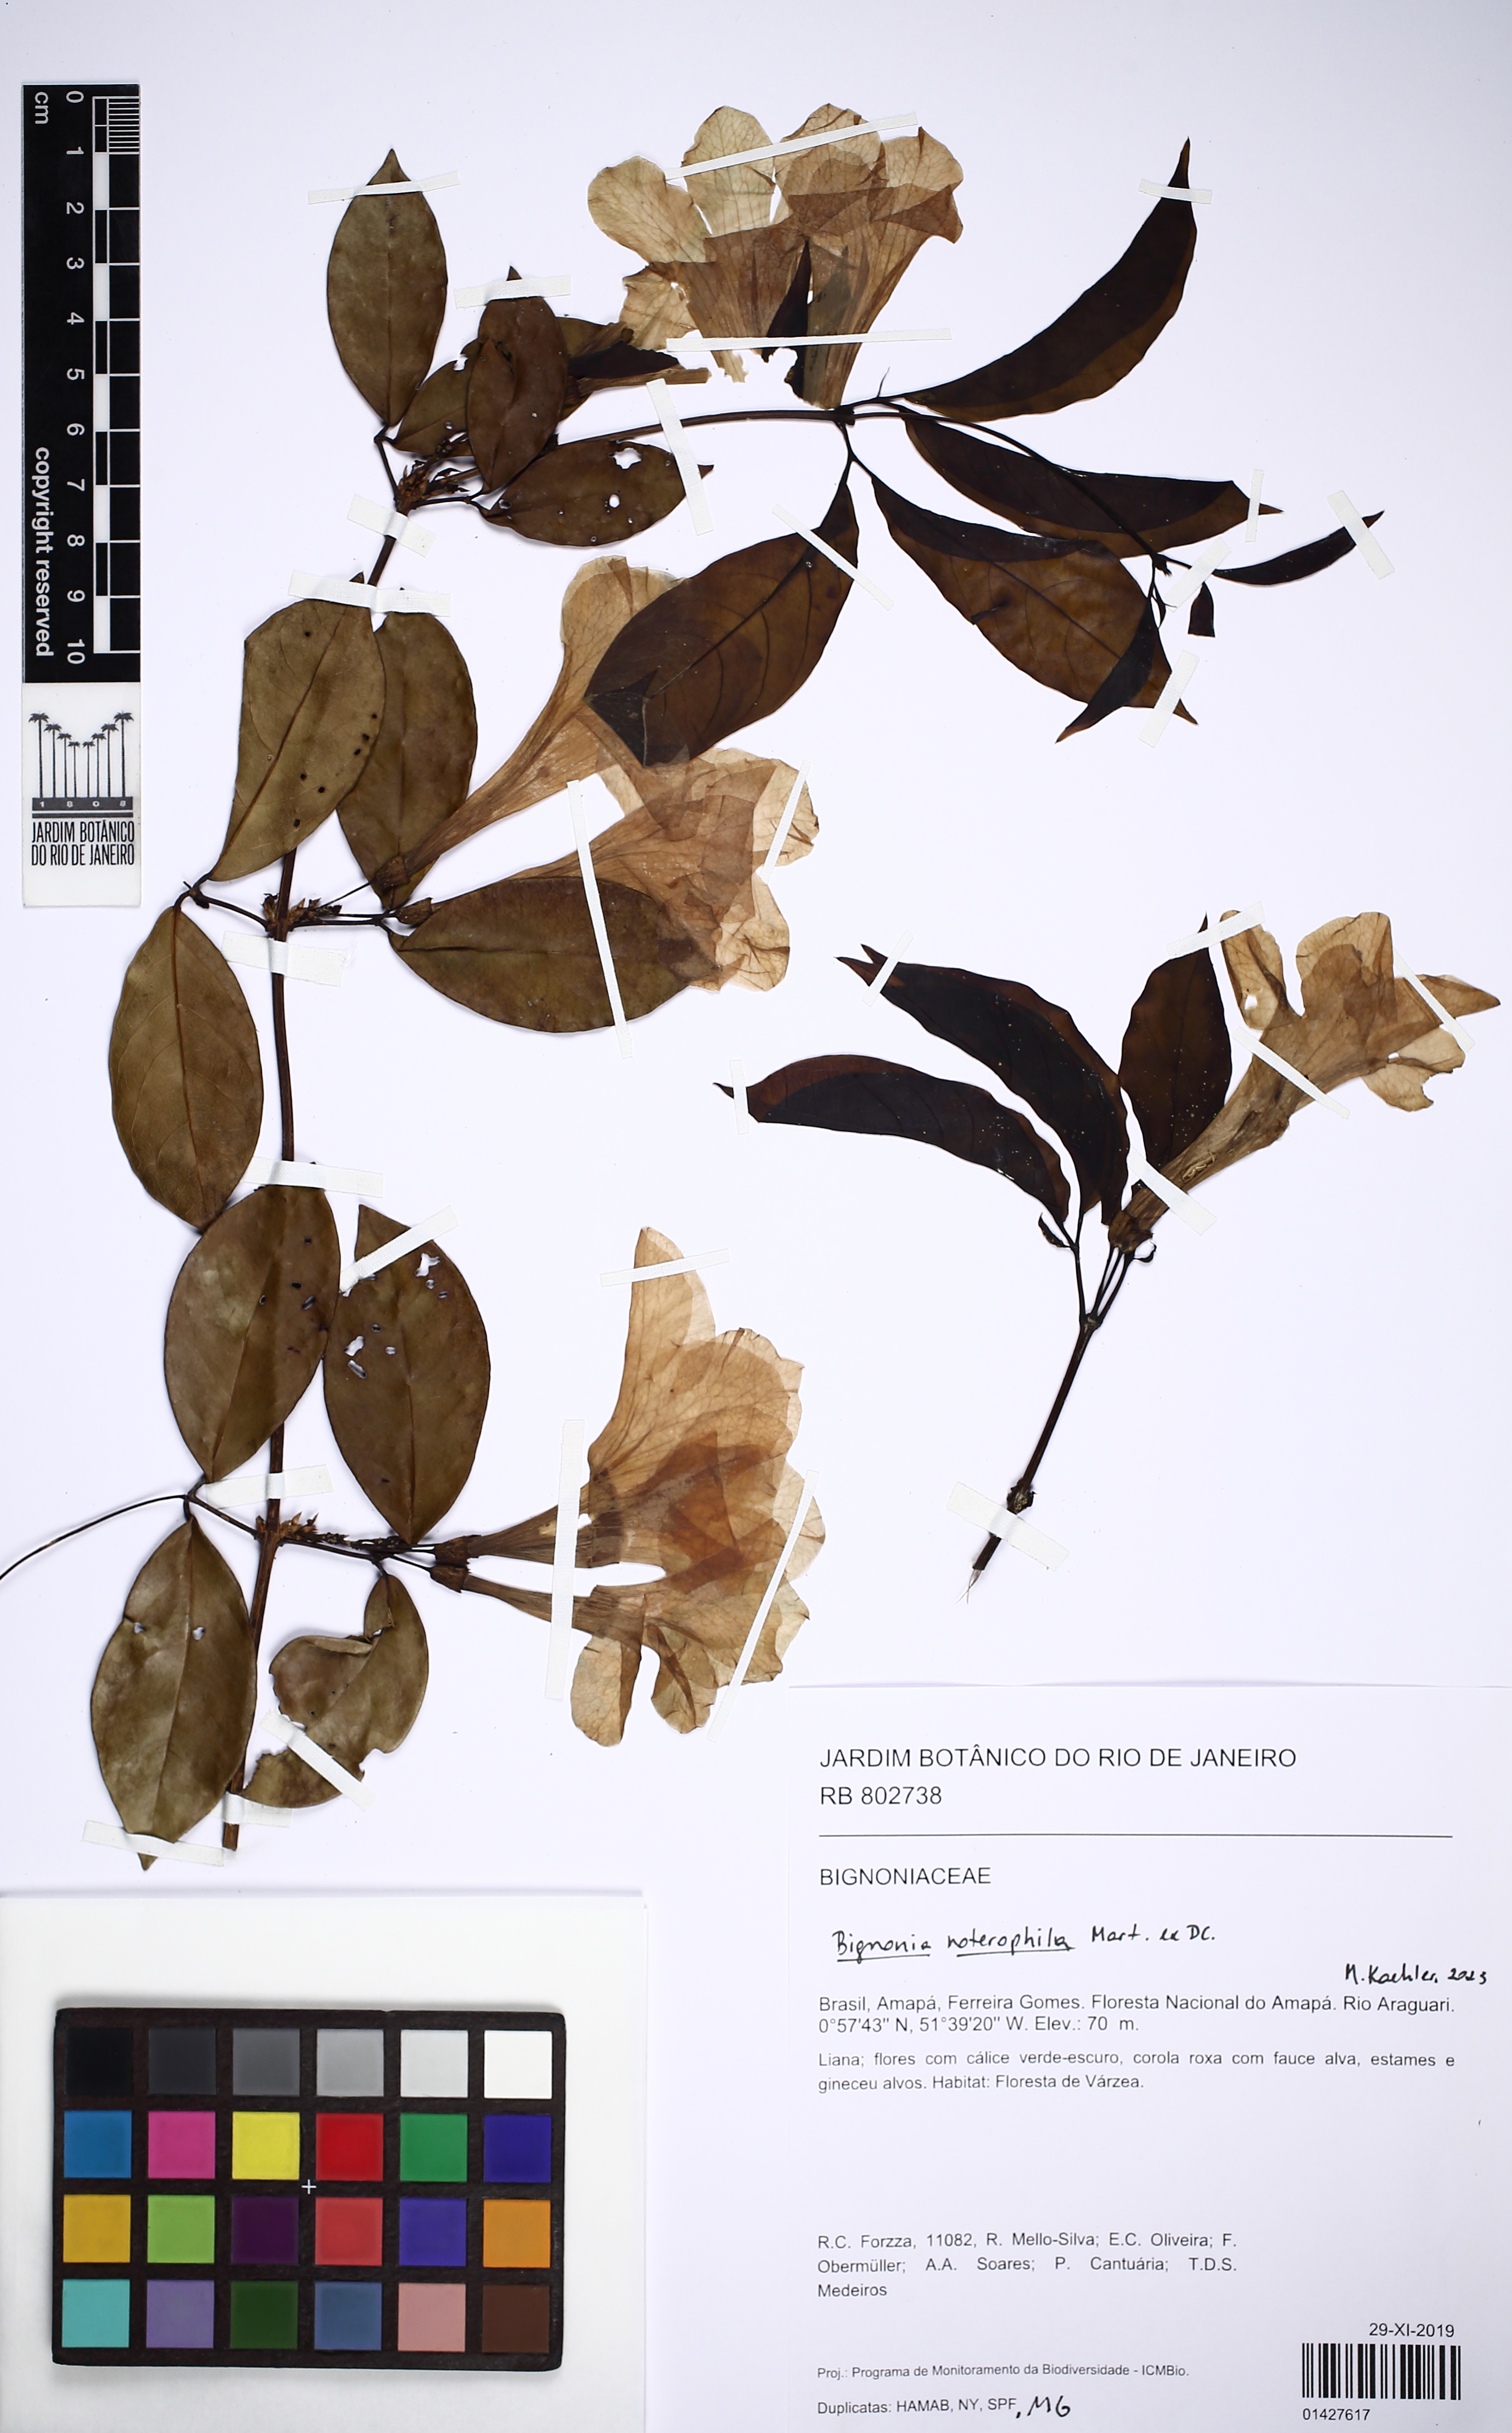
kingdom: Plantae
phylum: Tracheophyta
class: Magnoliopsida
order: Lamiales
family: Bignoniaceae
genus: Bignonia
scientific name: Bignonia noterophila
